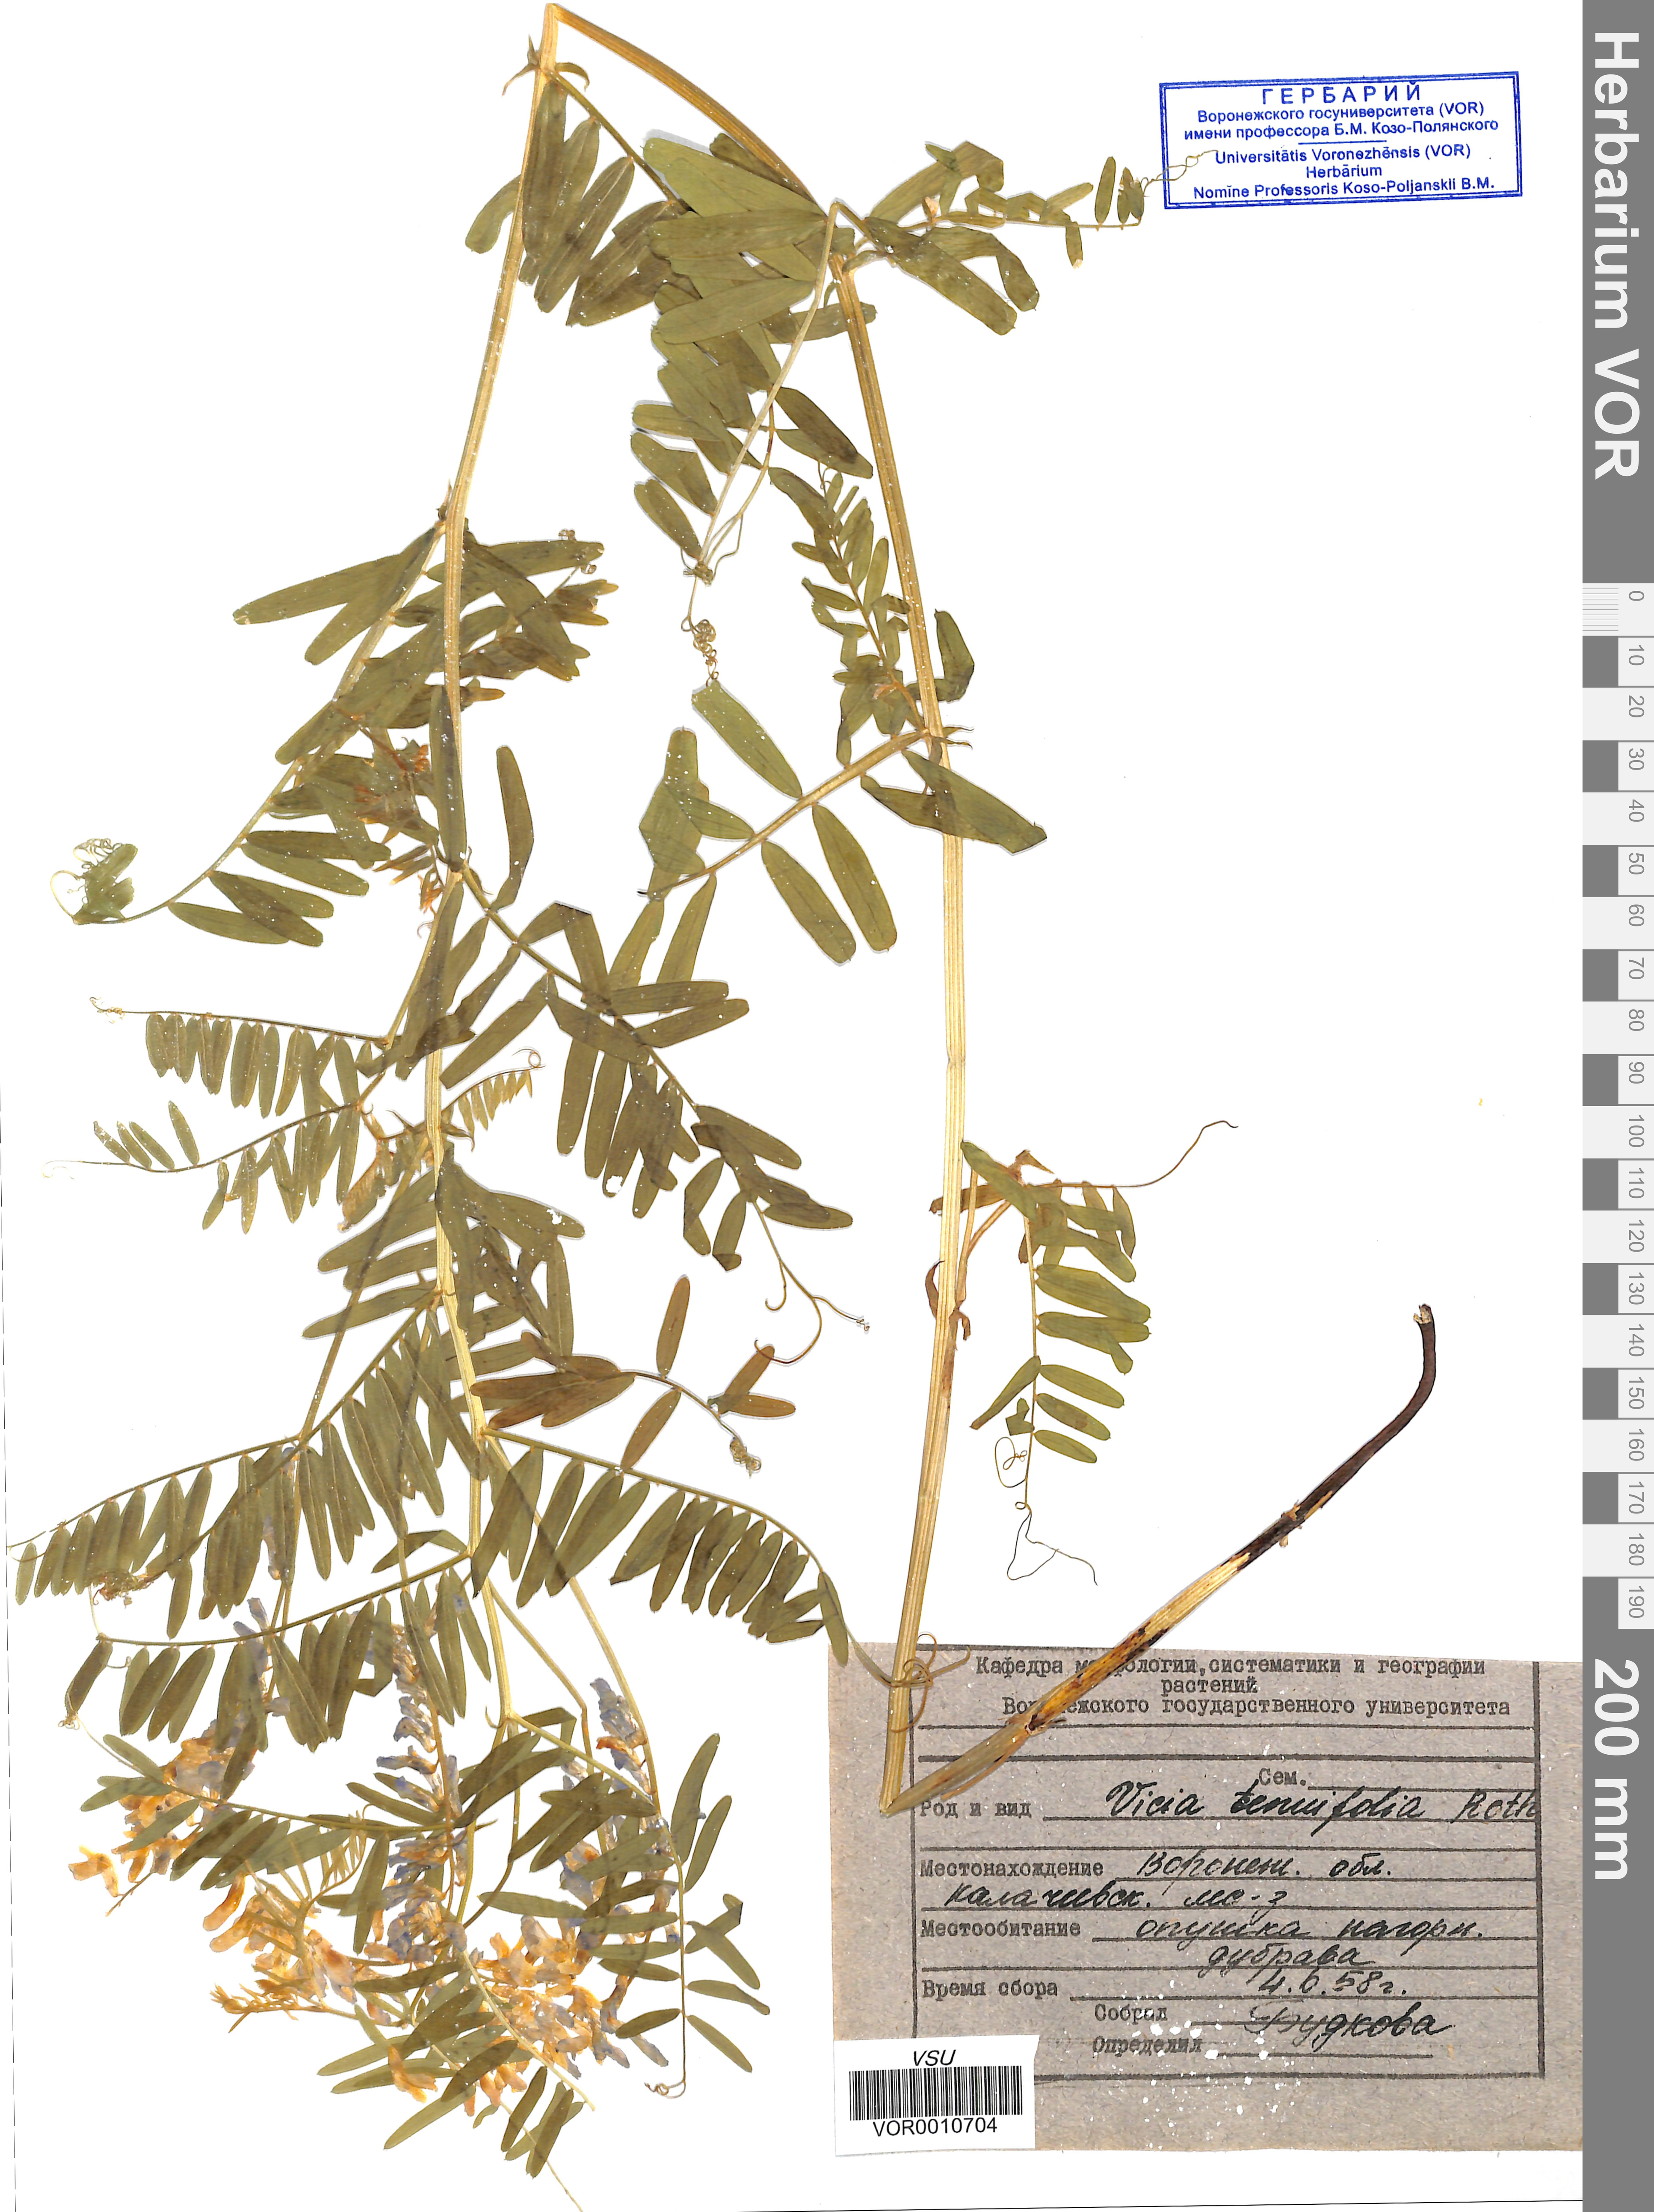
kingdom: Plantae
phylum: Tracheophyta
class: Magnoliopsida
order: Fabales
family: Fabaceae
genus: Vicia
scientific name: Vicia tenuifolia
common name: Fine-leaved vetch
